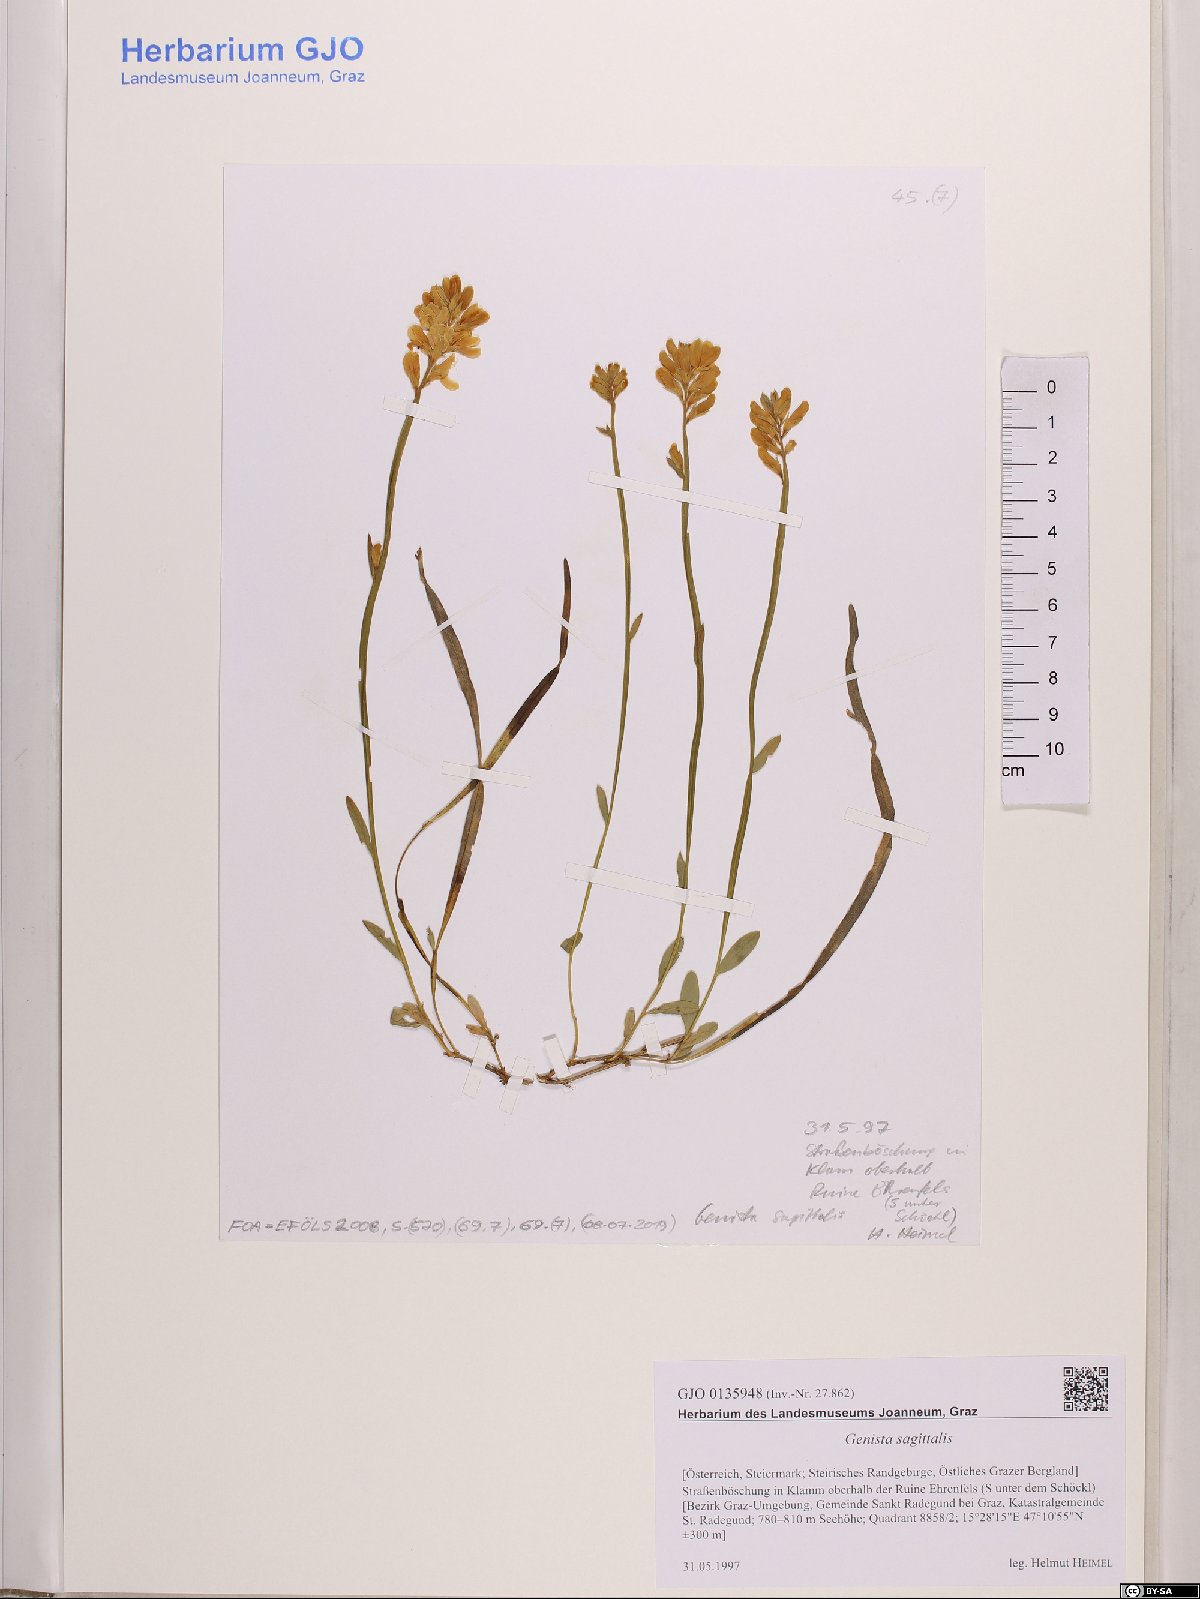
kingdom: Plantae
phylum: Tracheophyta
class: Magnoliopsida
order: Fabales
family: Fabaceae
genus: Genista
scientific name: Genista sagittalis
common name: Winged greenweed
